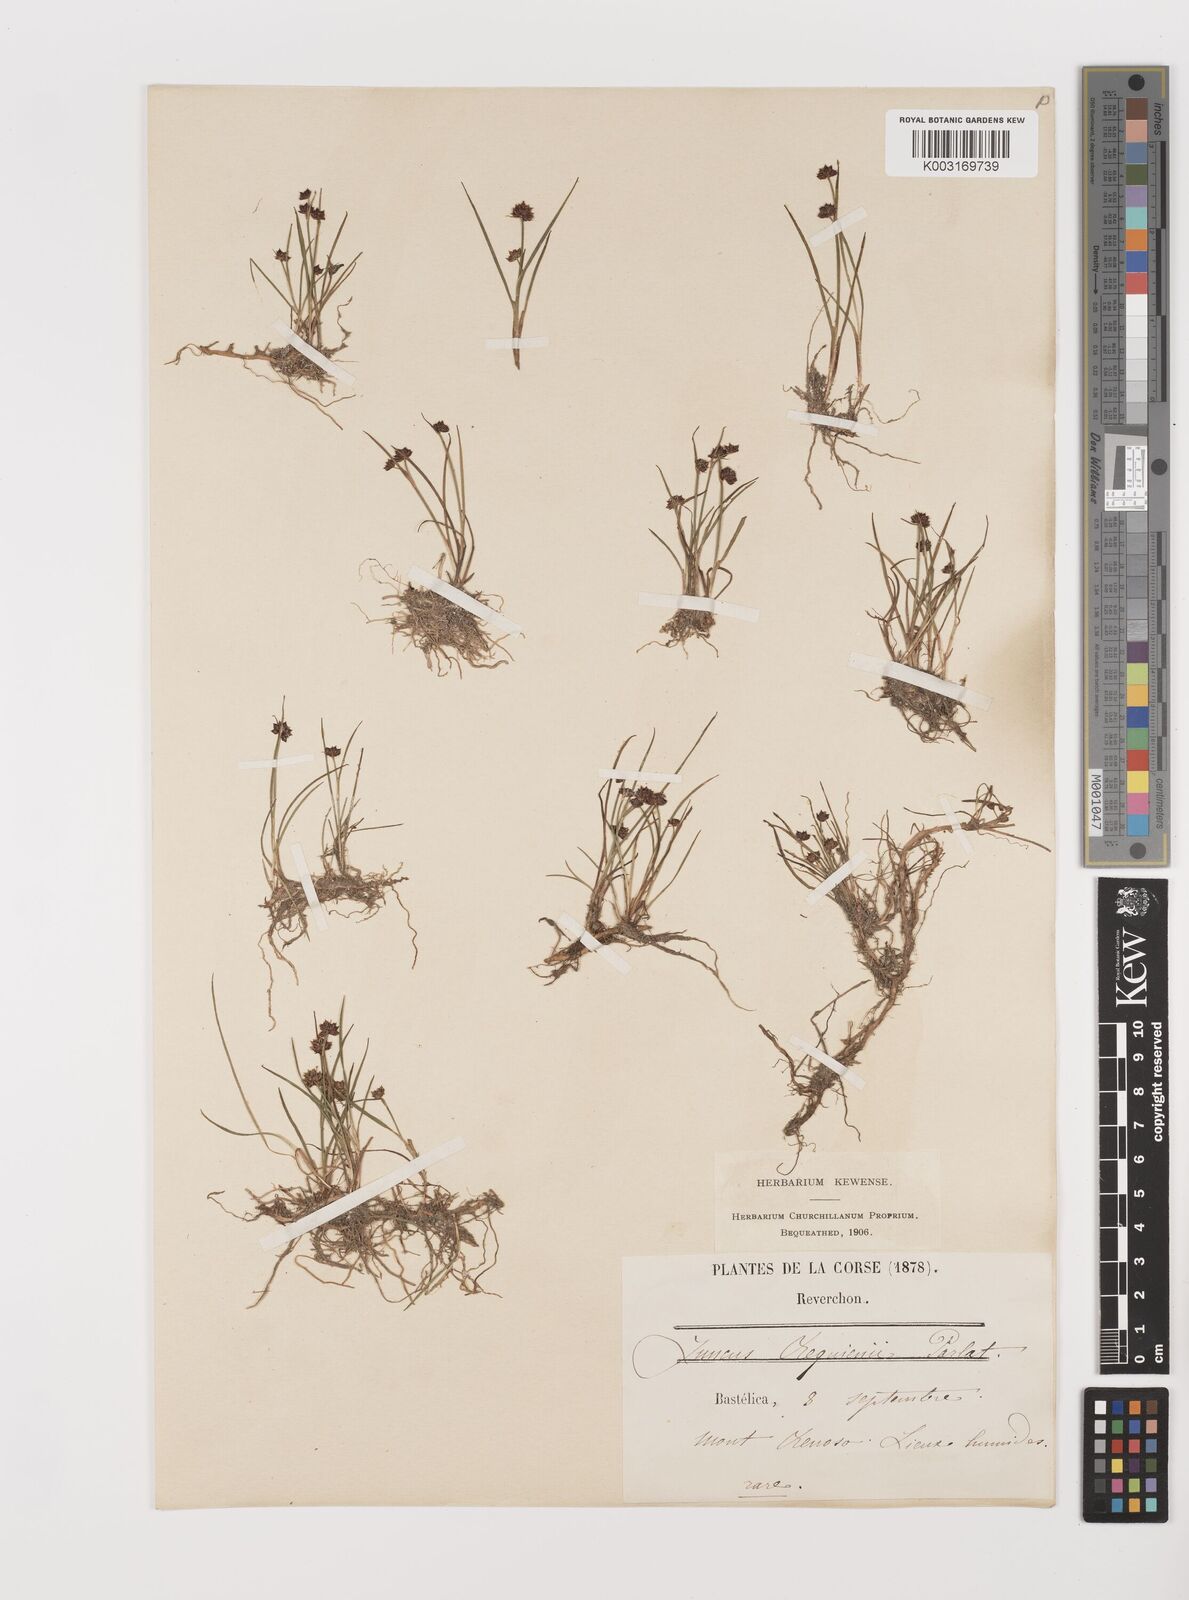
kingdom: Plantae
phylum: Tracheophyta
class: Liliopsida
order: Poales
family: Juncaceae
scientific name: Juncaceae
